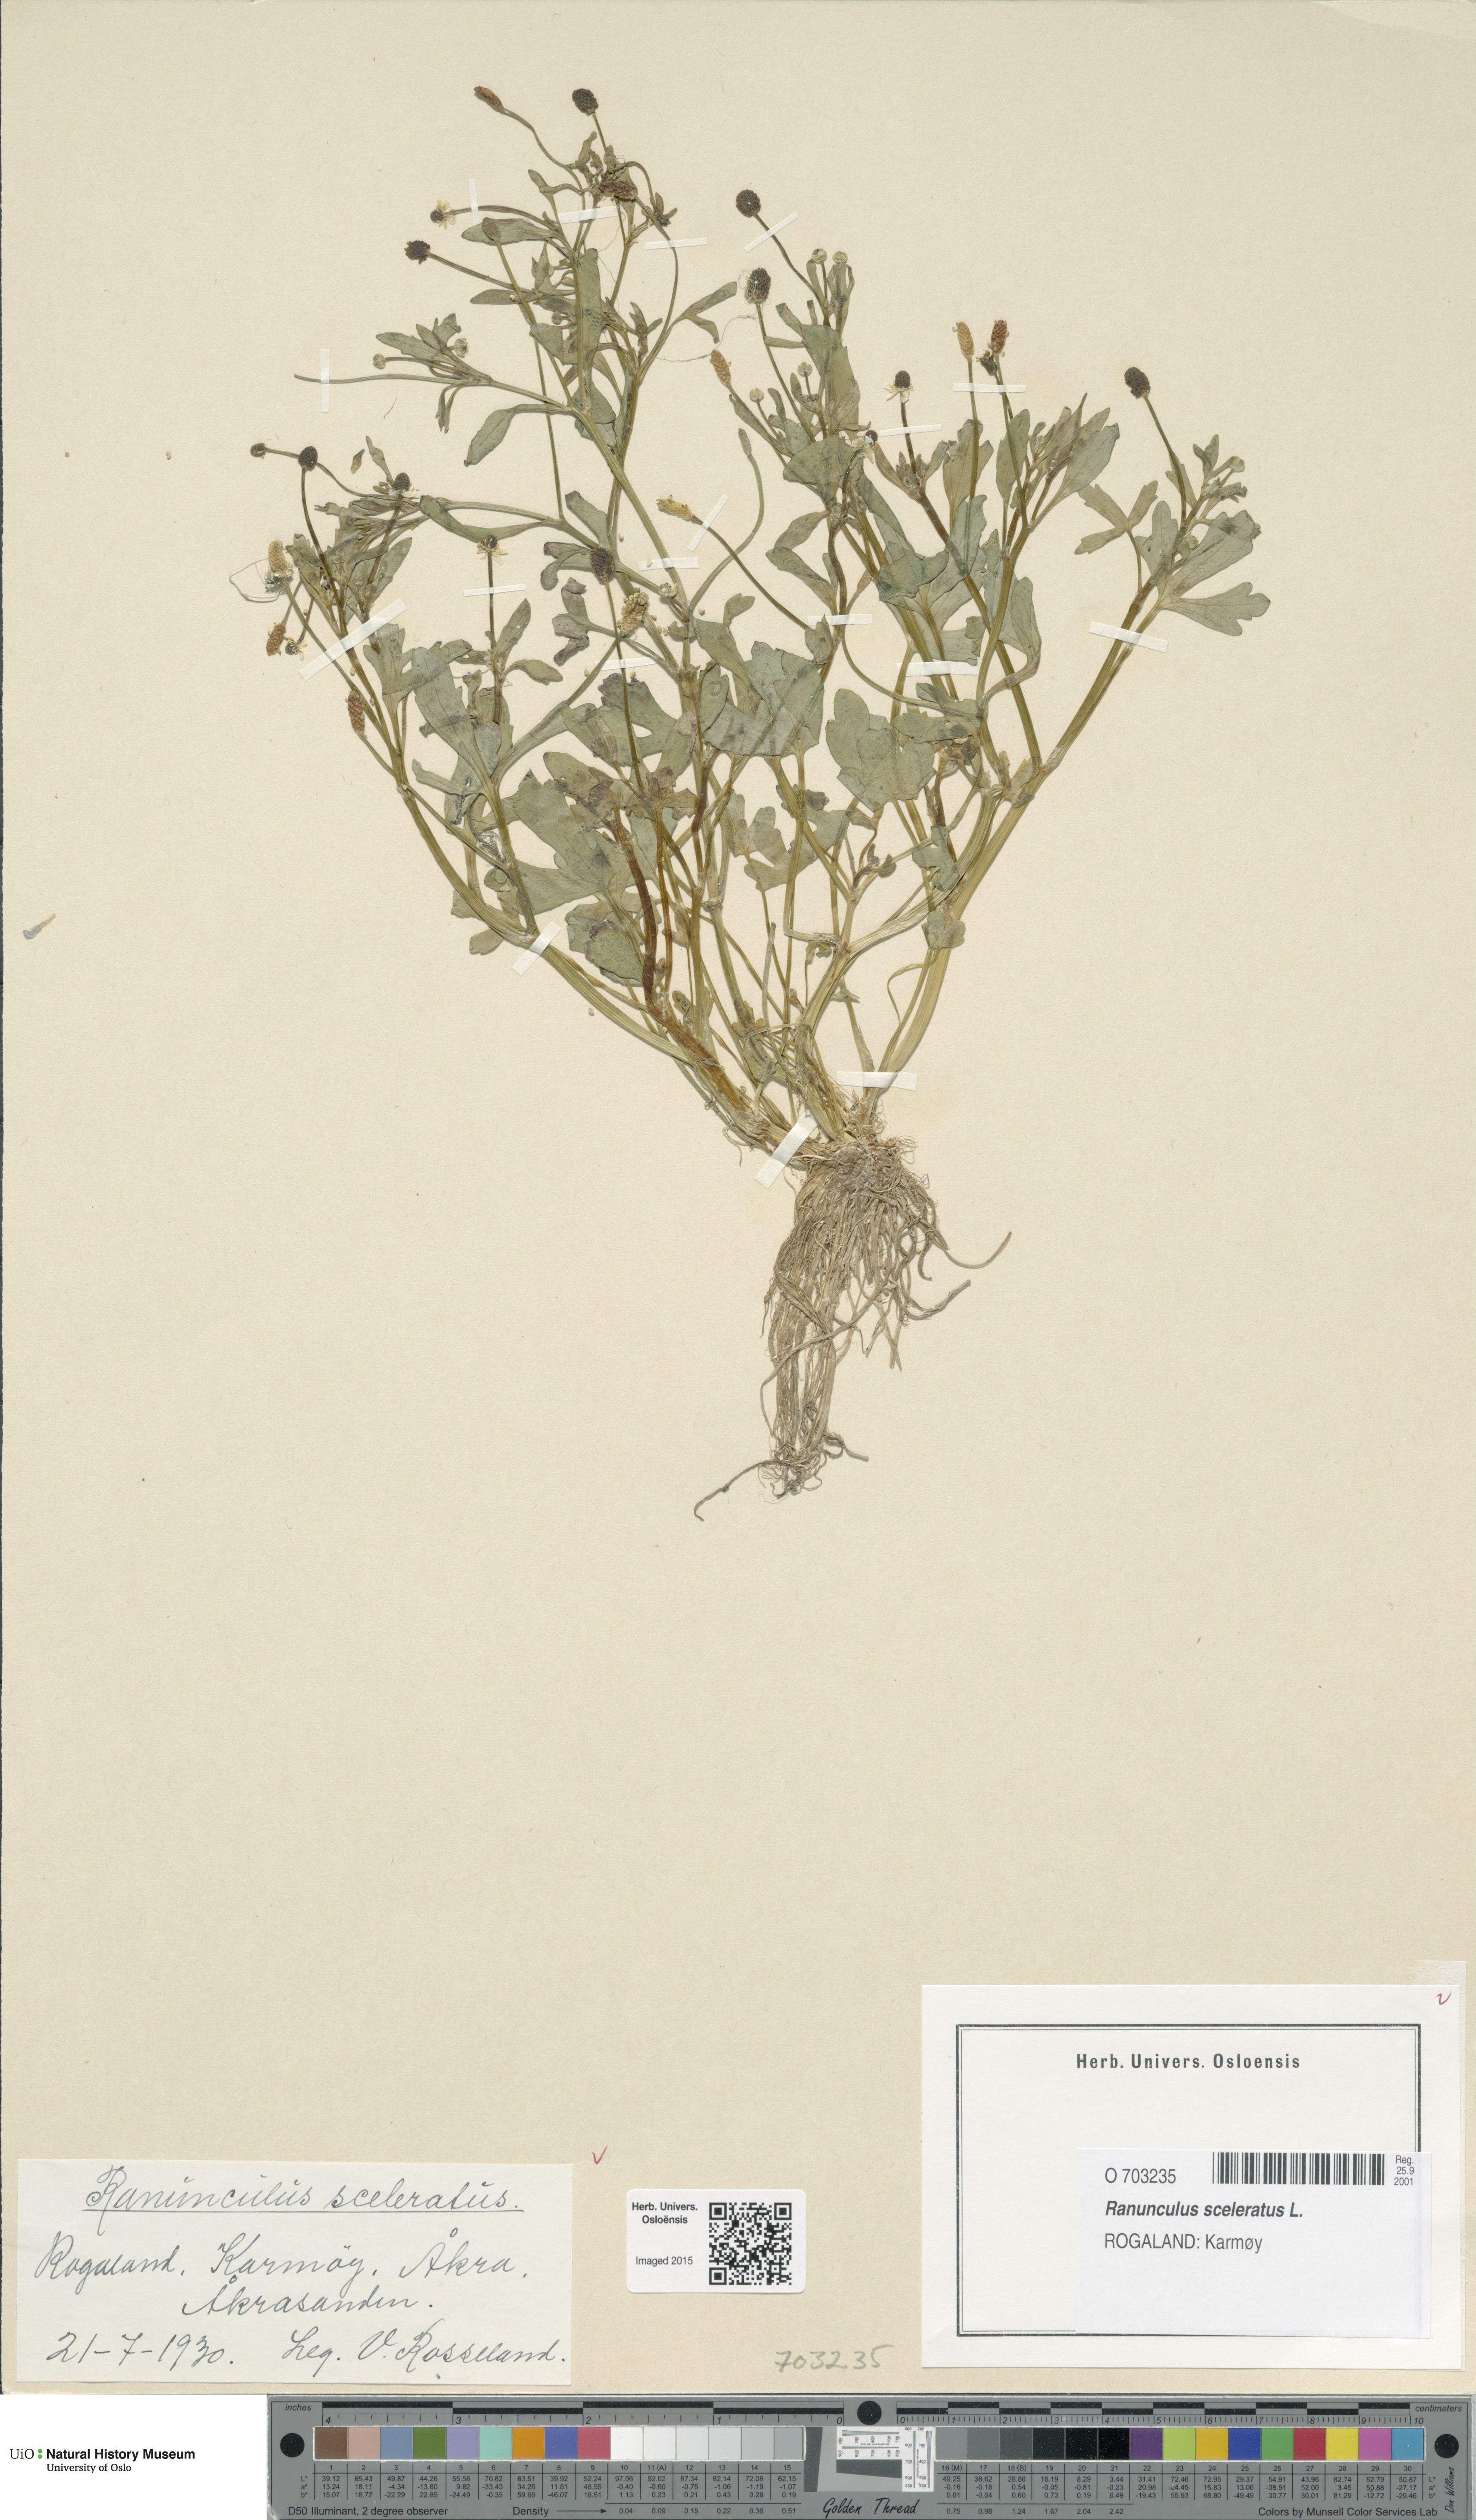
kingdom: Plantae
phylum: Tracheophyta
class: Magnoliopsida
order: Ranunculales
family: Ranunculaceae
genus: Ranunculus
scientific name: Ranunculus sceleratus
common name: Celery-leaved buttercup
